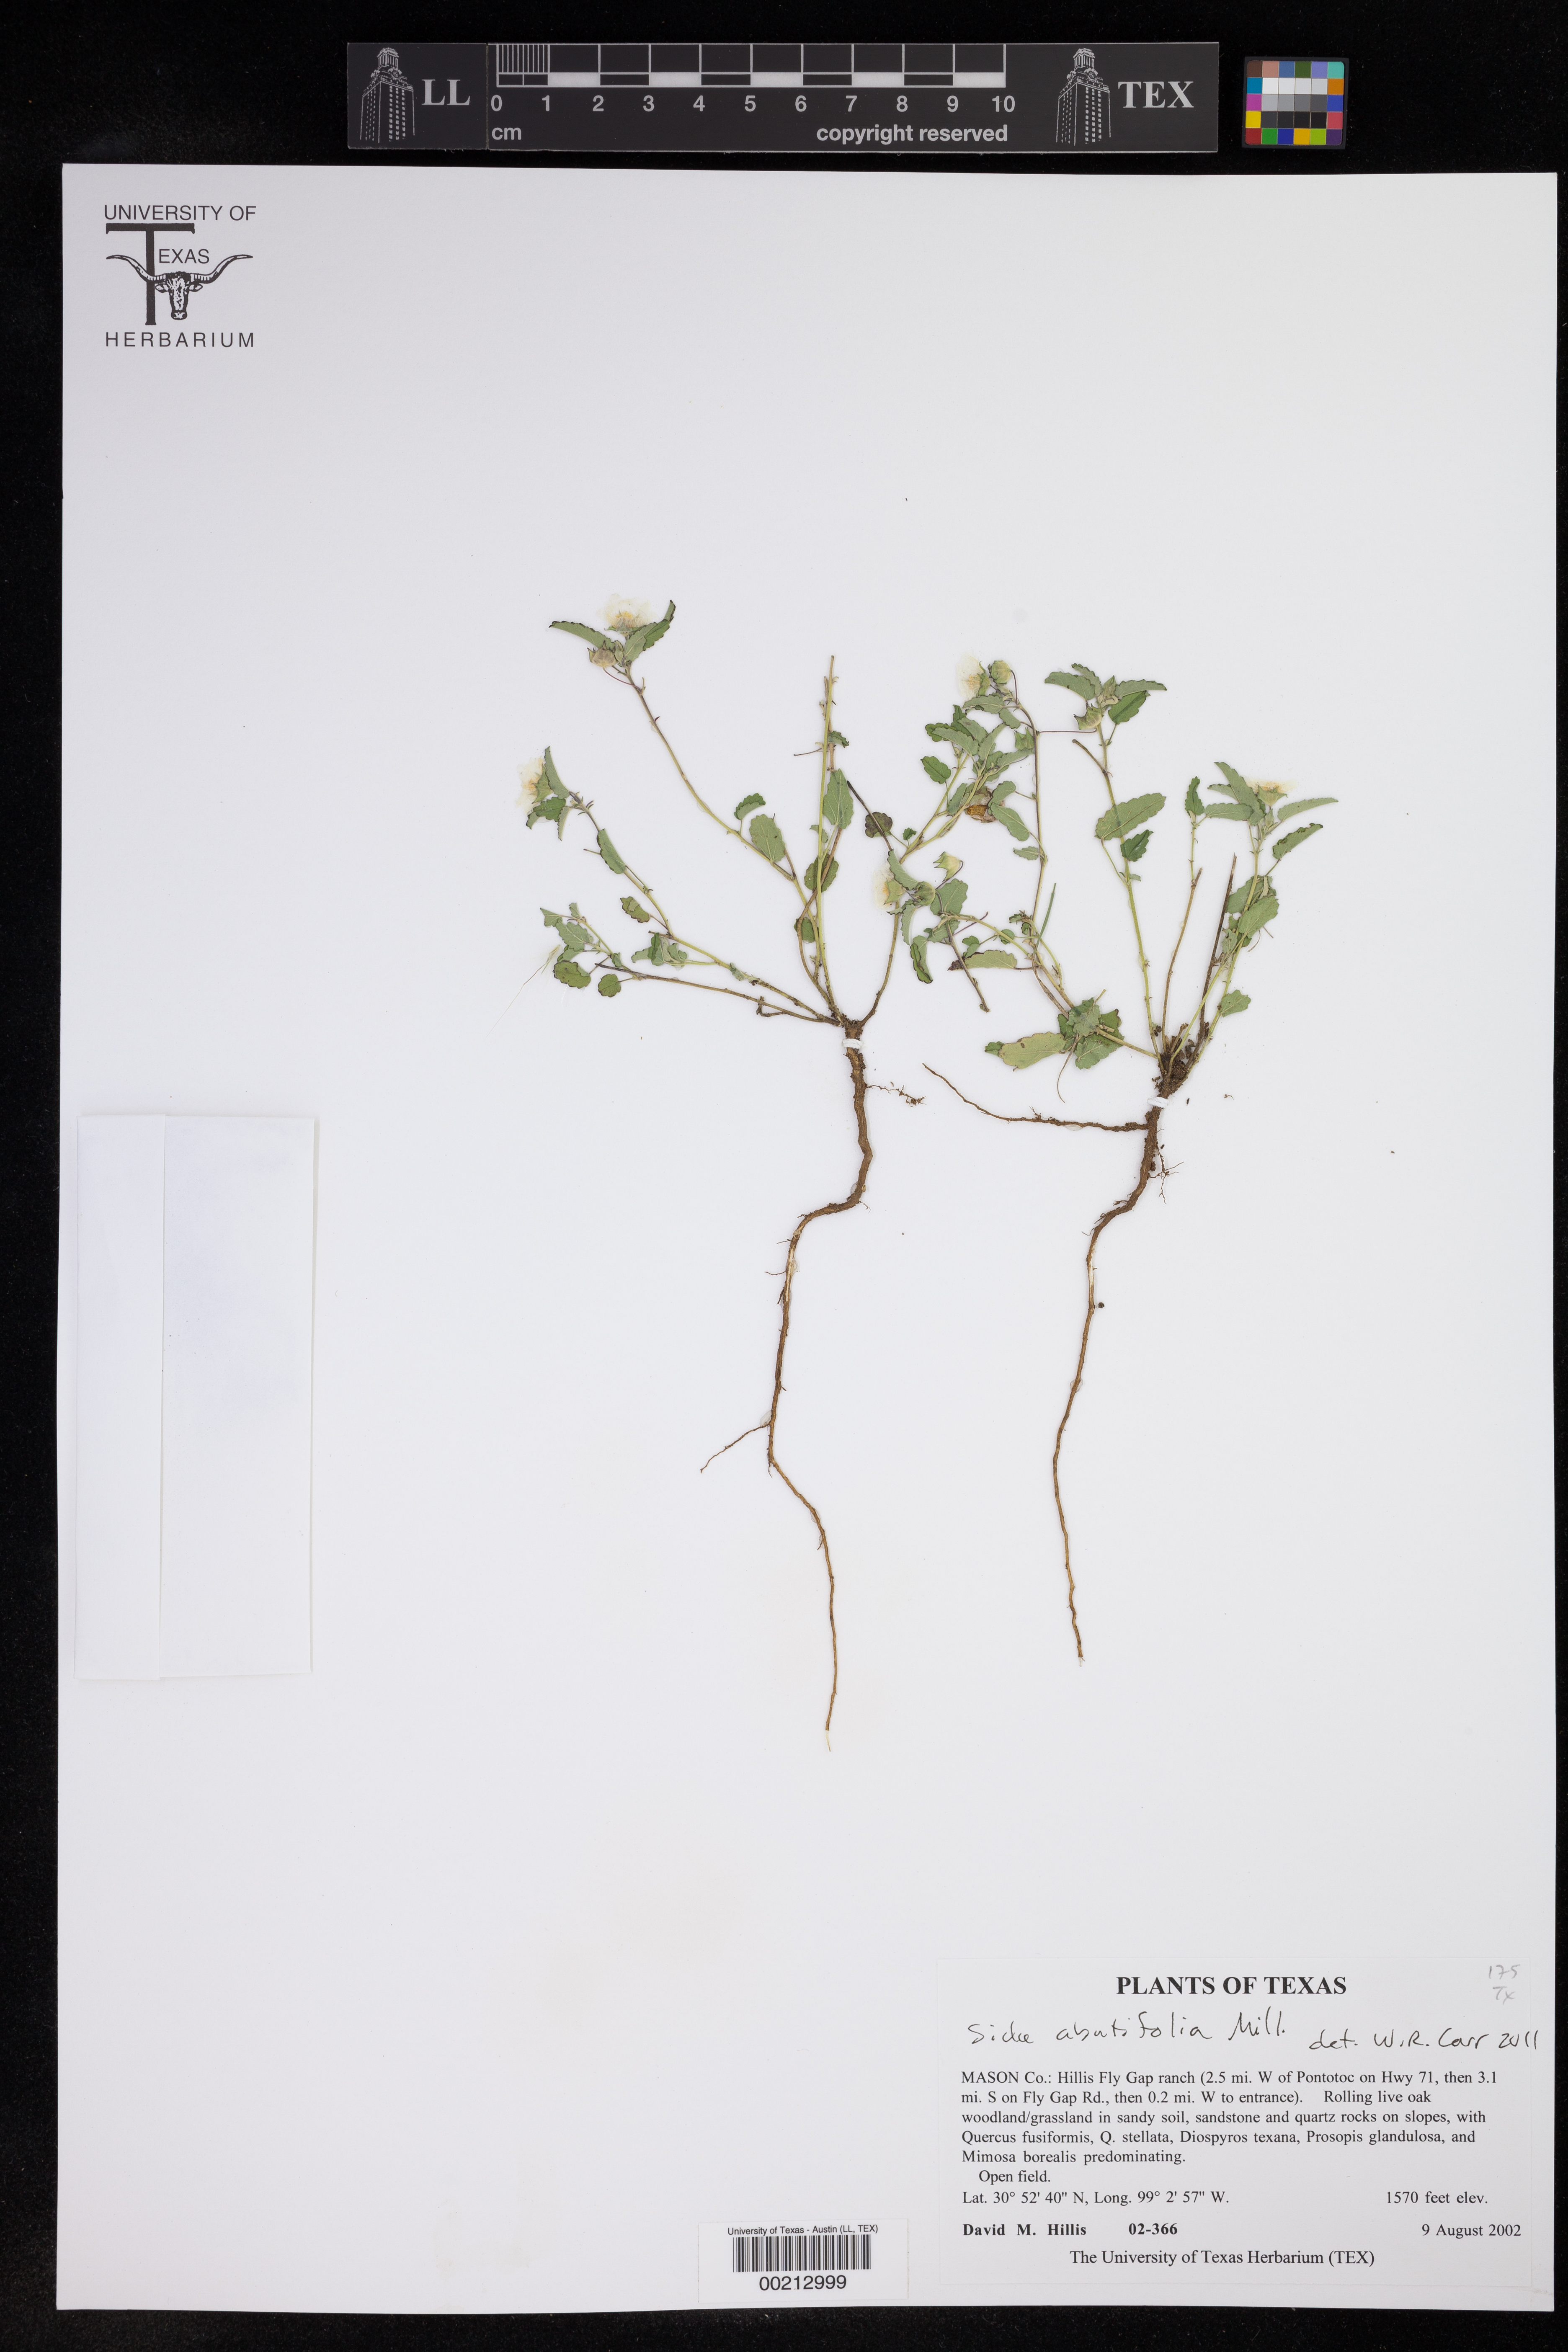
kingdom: Plantae
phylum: Tracheophyta
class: Magnoliopsida
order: Malvales
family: Malvaceae
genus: Sida
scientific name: Sida abutilifolia
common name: Spreading fanpetals
